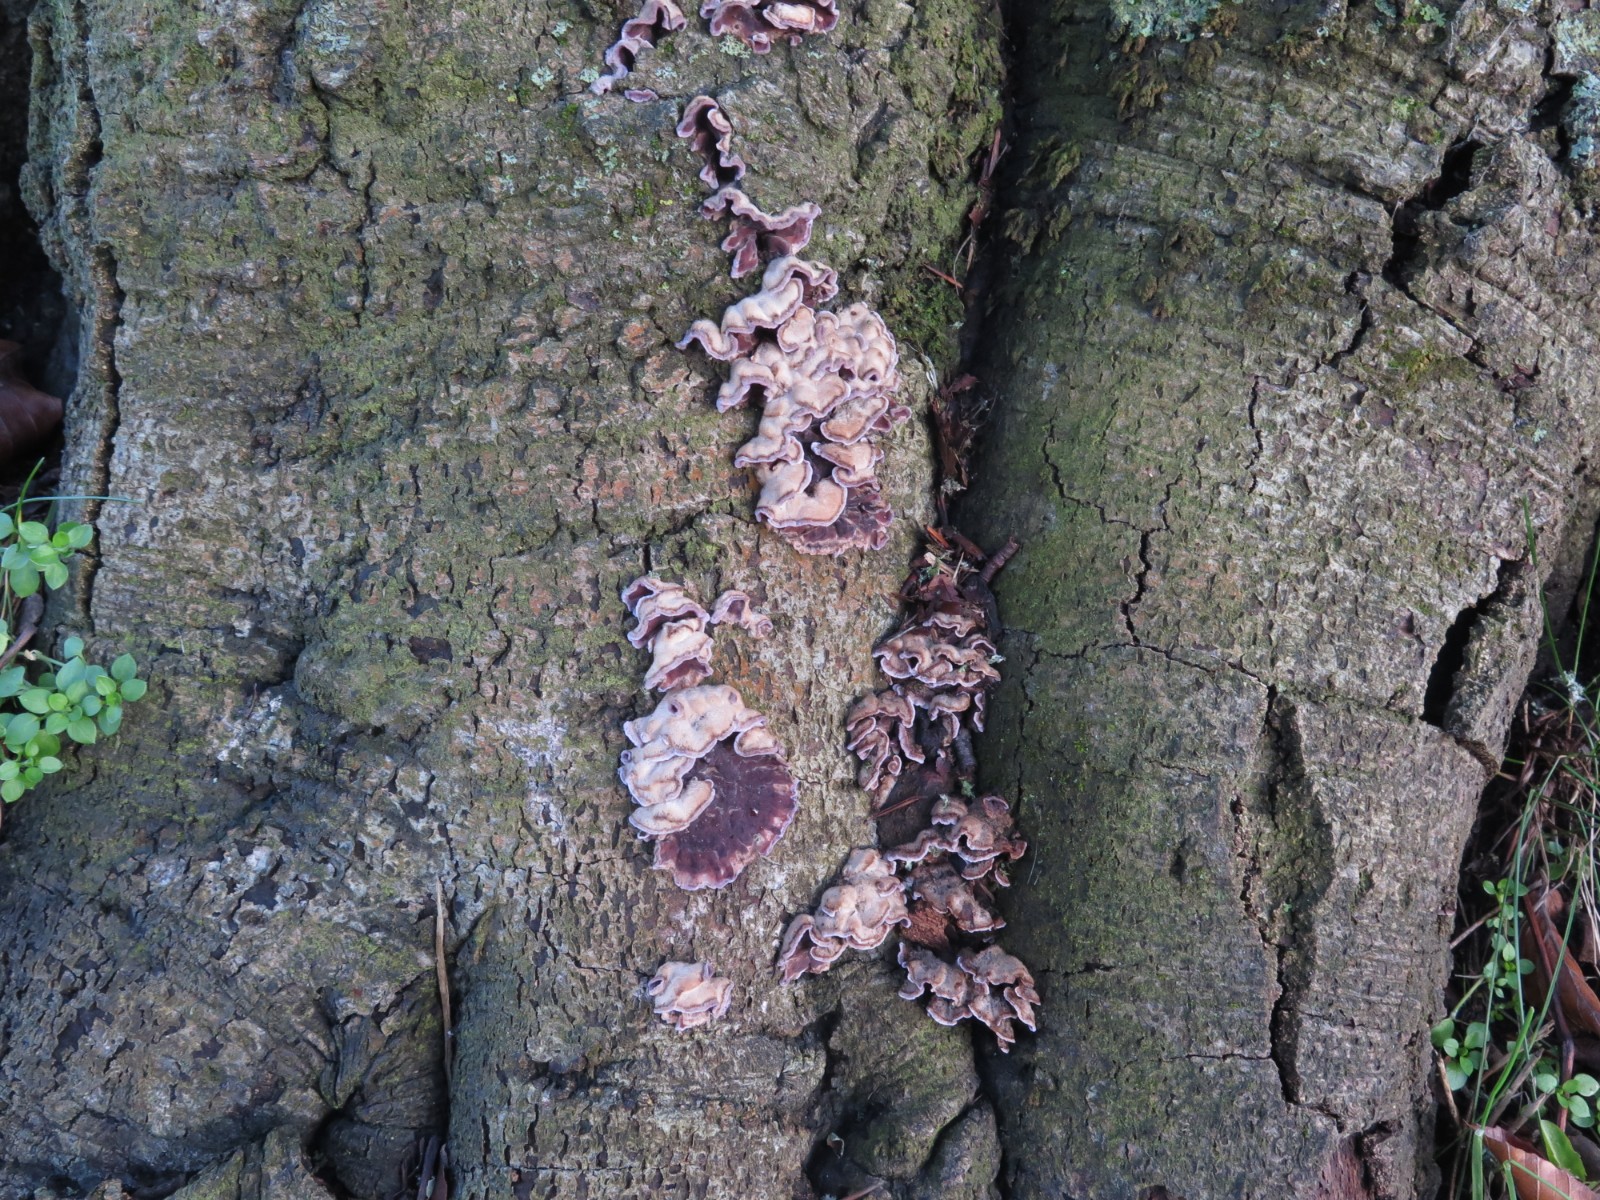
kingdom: Fungi
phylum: Basidiomycota
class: Agaricomycetes
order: Agaricales
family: Cyphellaceae
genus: Chondrostereum
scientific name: Chondrostereum purpureum
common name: purpurlædersvamp
